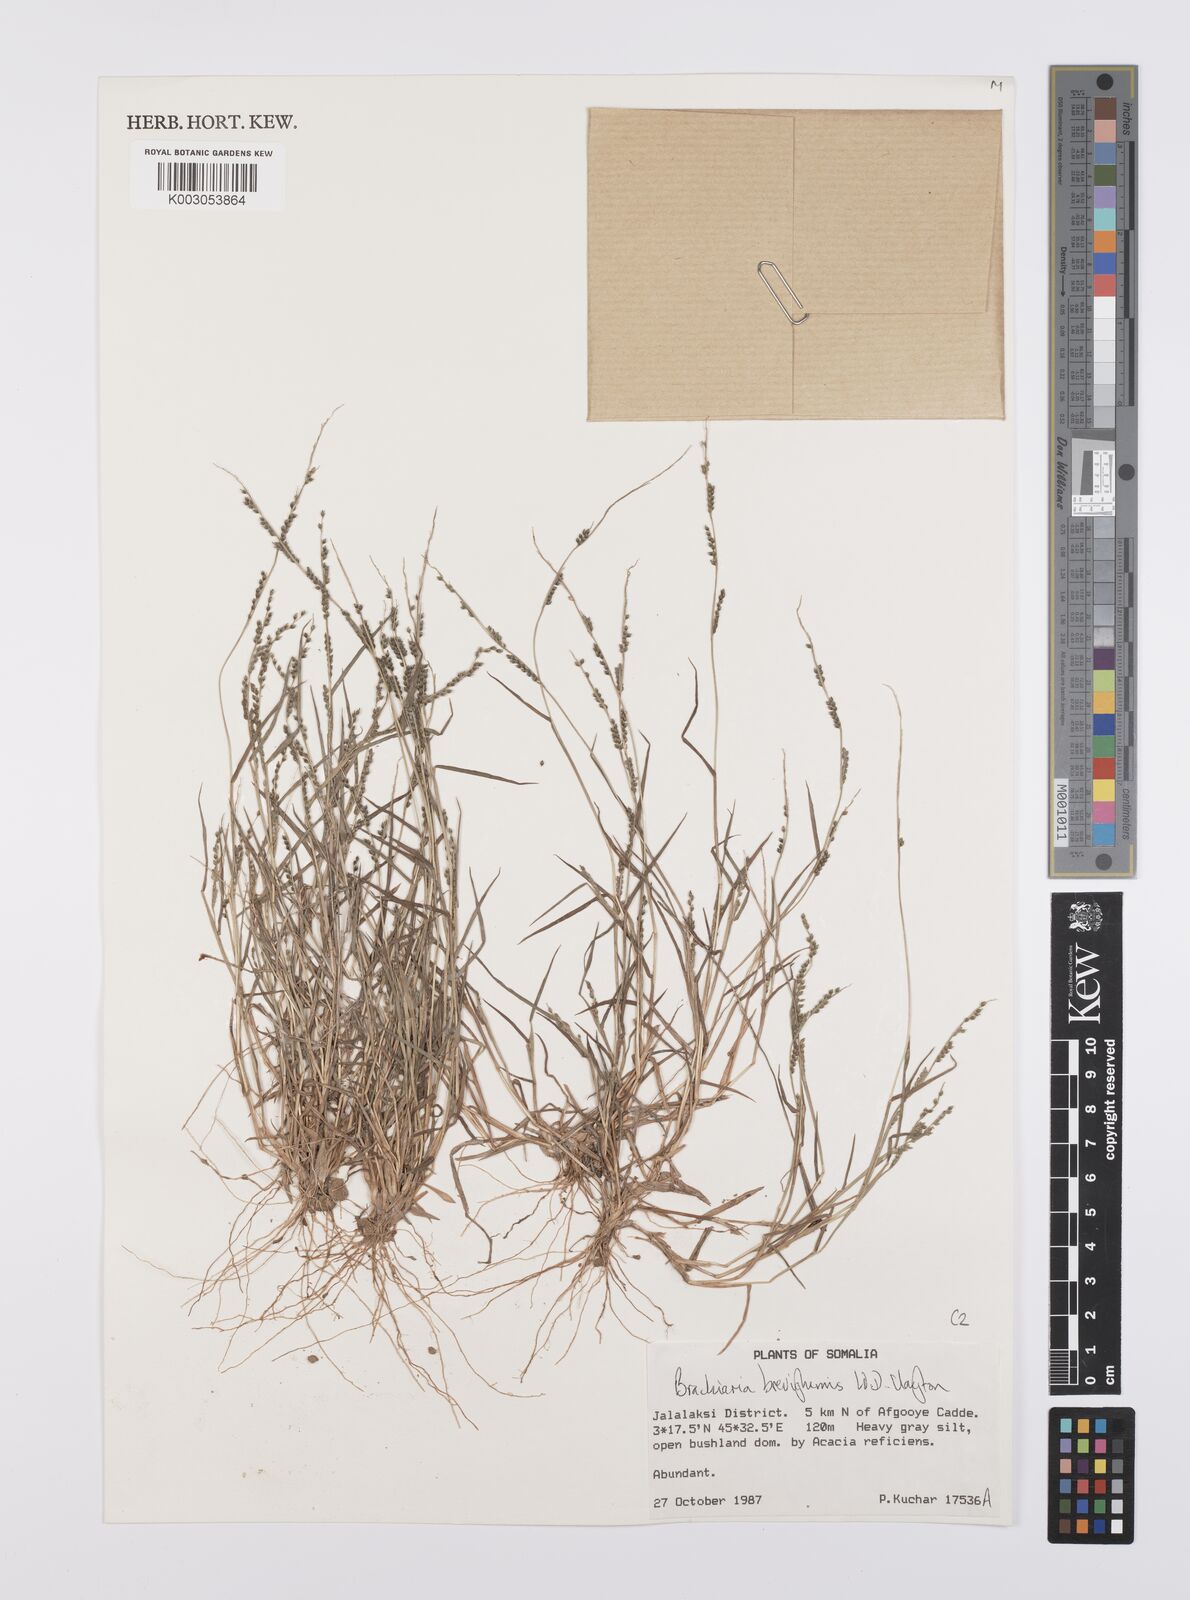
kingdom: Plantae
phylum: Tracheophyta
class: Liliopsida
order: Poales
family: Poaceae
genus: Urochloa
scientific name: Urochloa Brachiaria breviglumis
